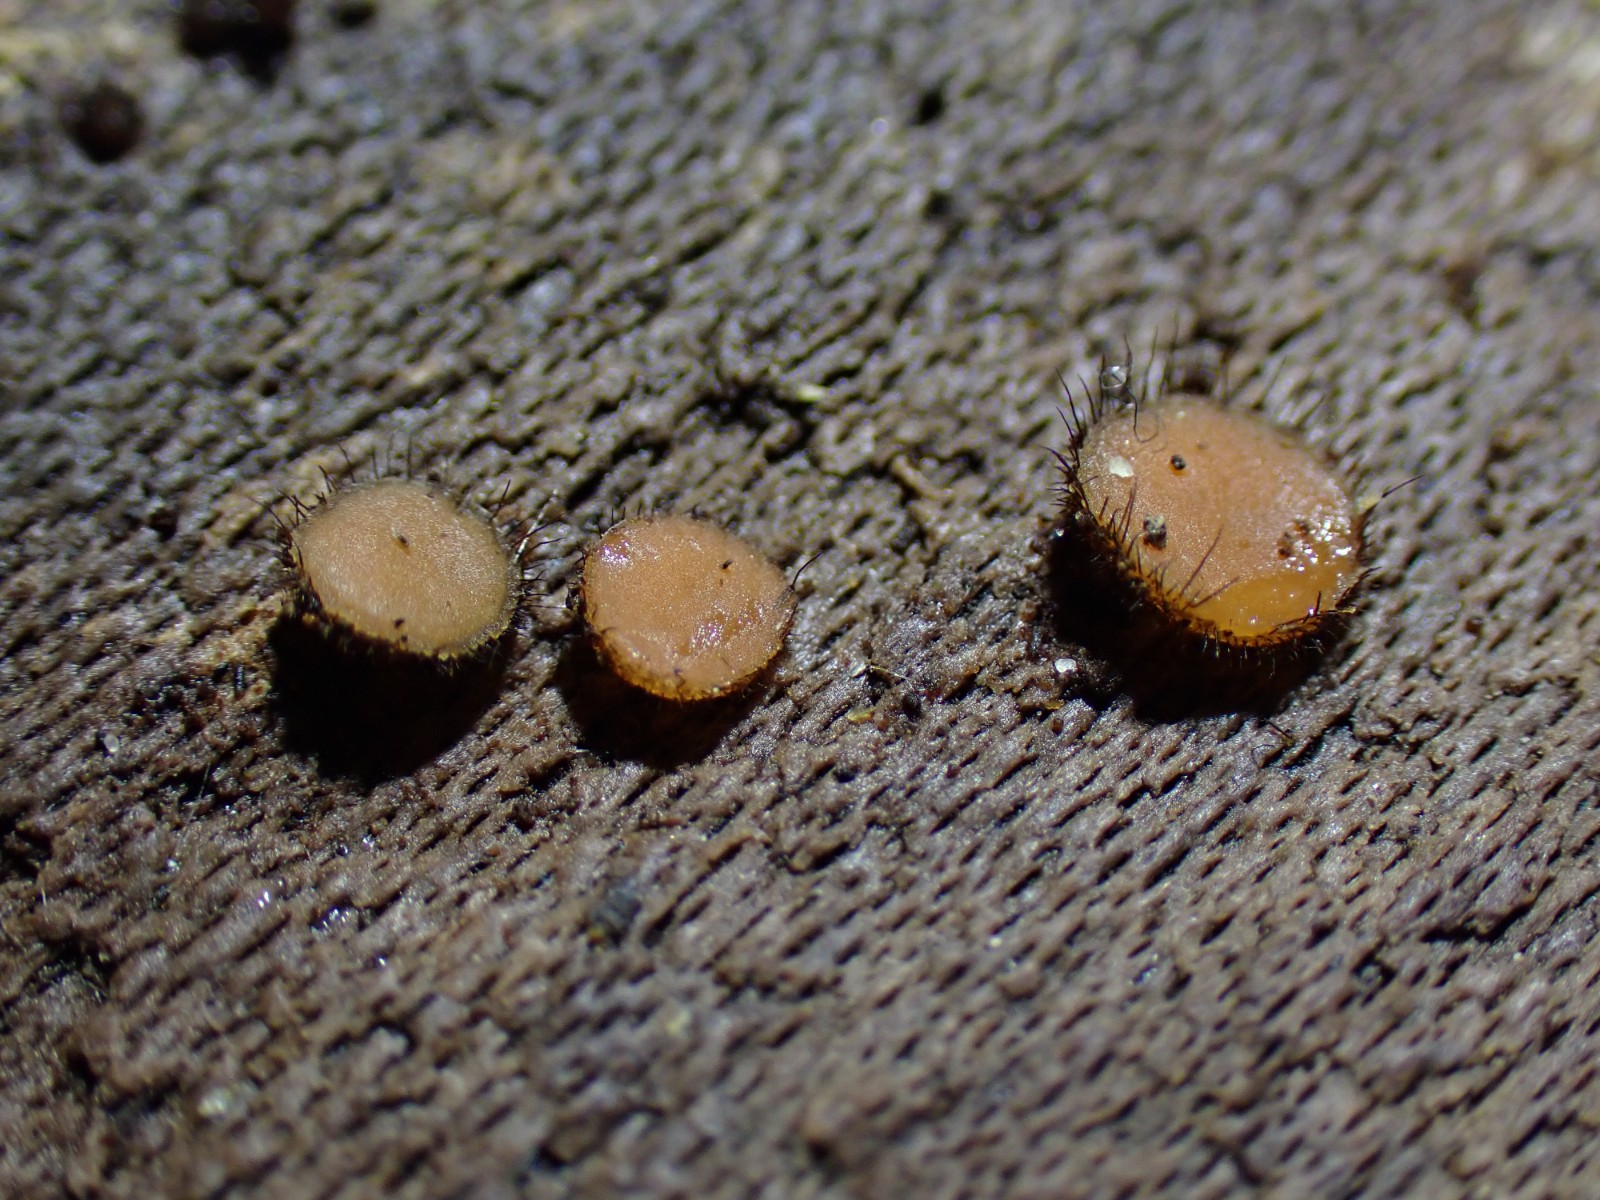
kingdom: Fungi
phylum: Ascomycota
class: Pezizomycetes
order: Pezizales
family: Pyronemataceae
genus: Scutellinia
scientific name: Scutellinia scutellata
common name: frynset skjoldbæger
